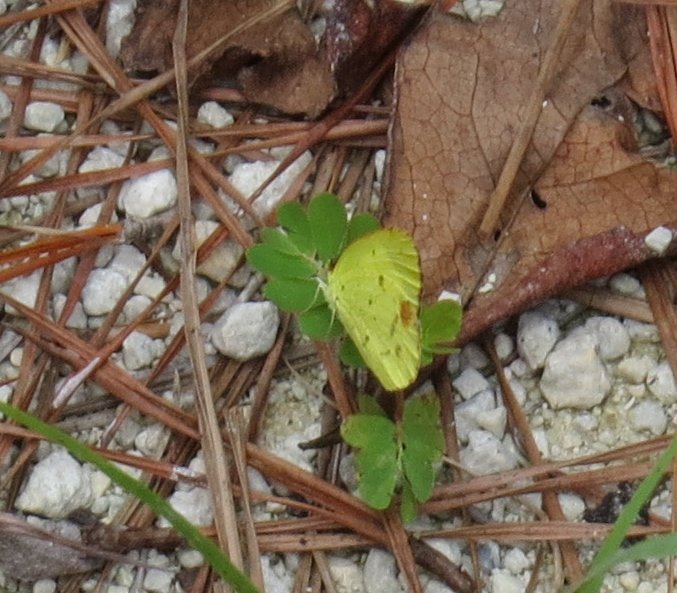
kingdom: Animalia
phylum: Arthropoda
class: Insecta
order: Lepidoptera
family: Pieridae
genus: Pyrisitia
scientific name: Pyrisitia lisa
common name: Little Yellow
